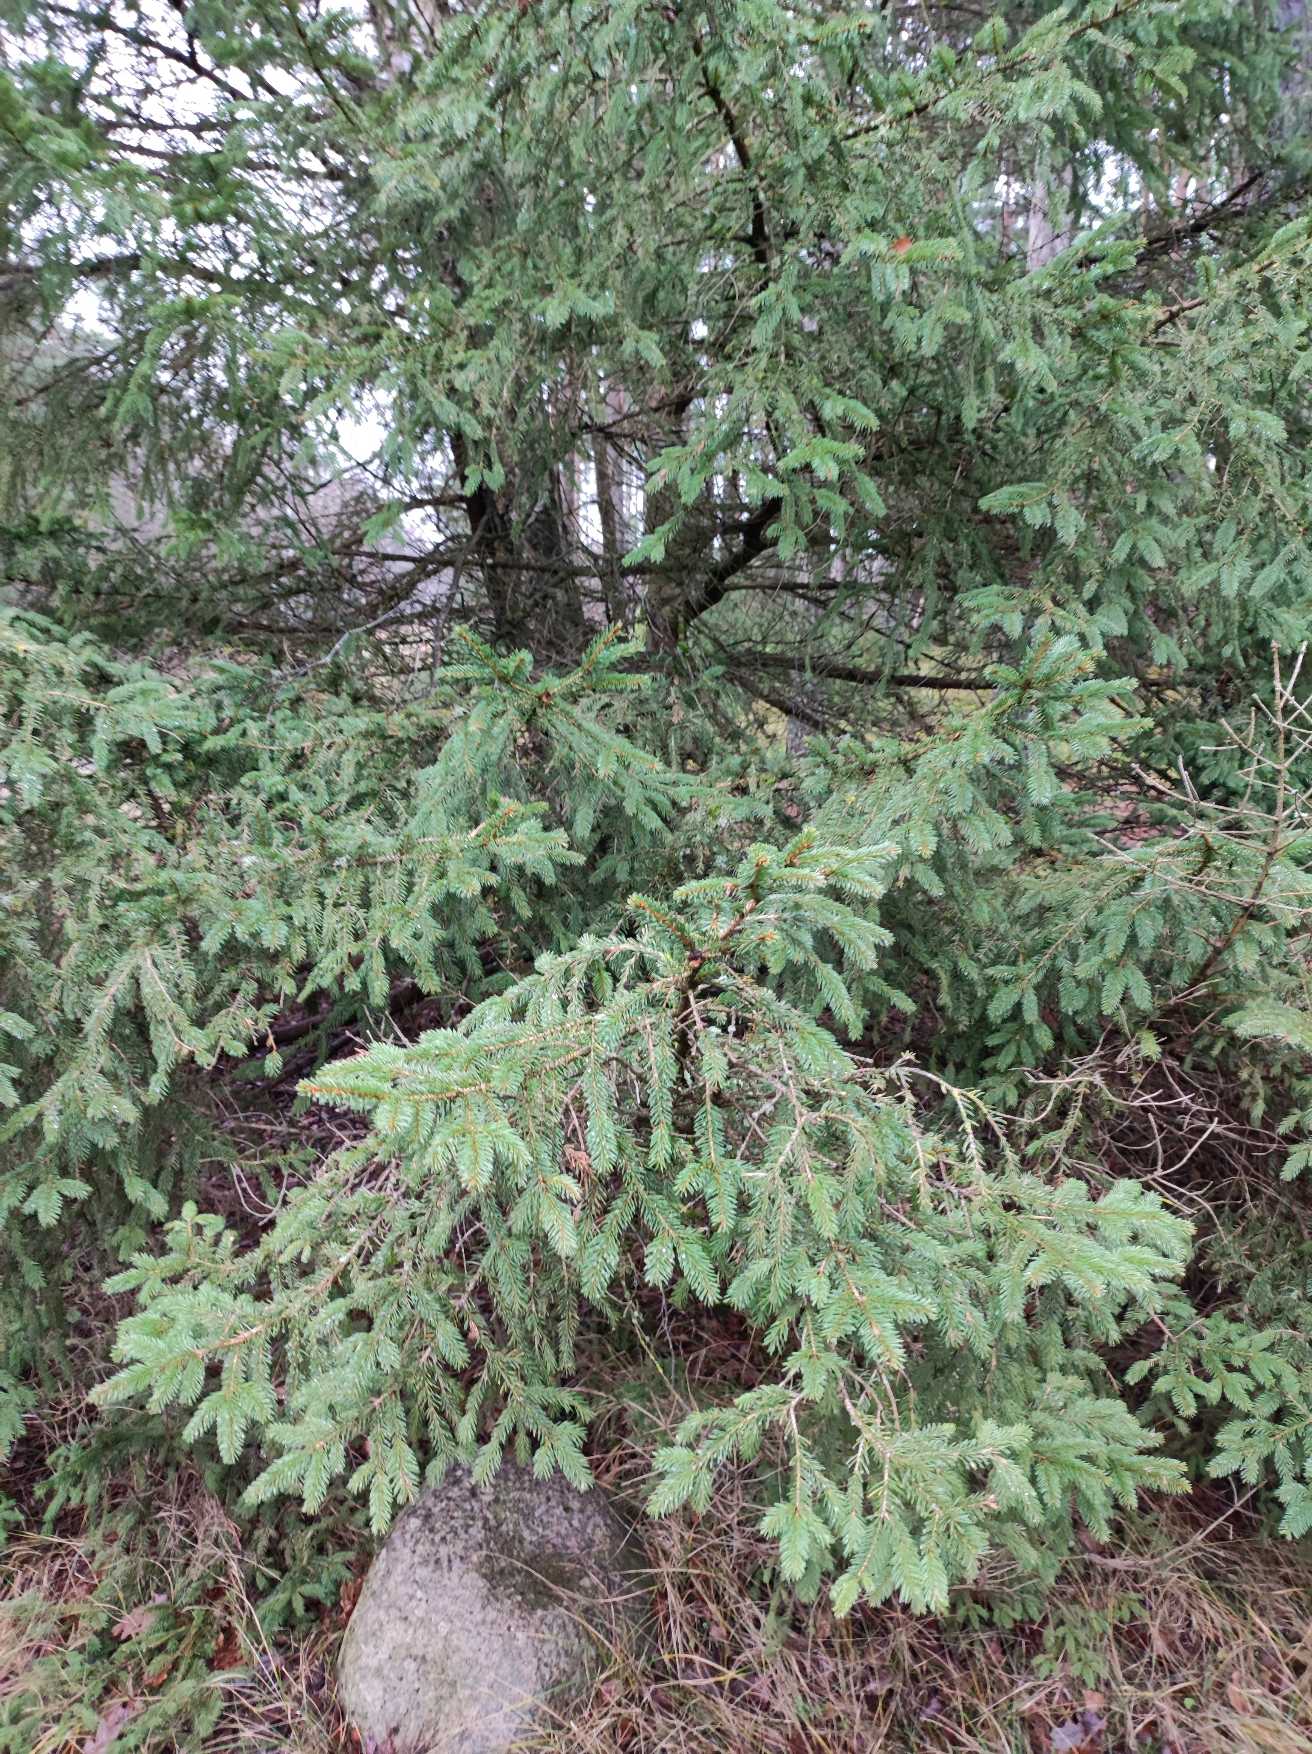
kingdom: Plantae
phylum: Tracheophyta
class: Pinopsida
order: Pinales
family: Pinaceae
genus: Picea
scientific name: Picea sitchensis
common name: Sitka-gran
